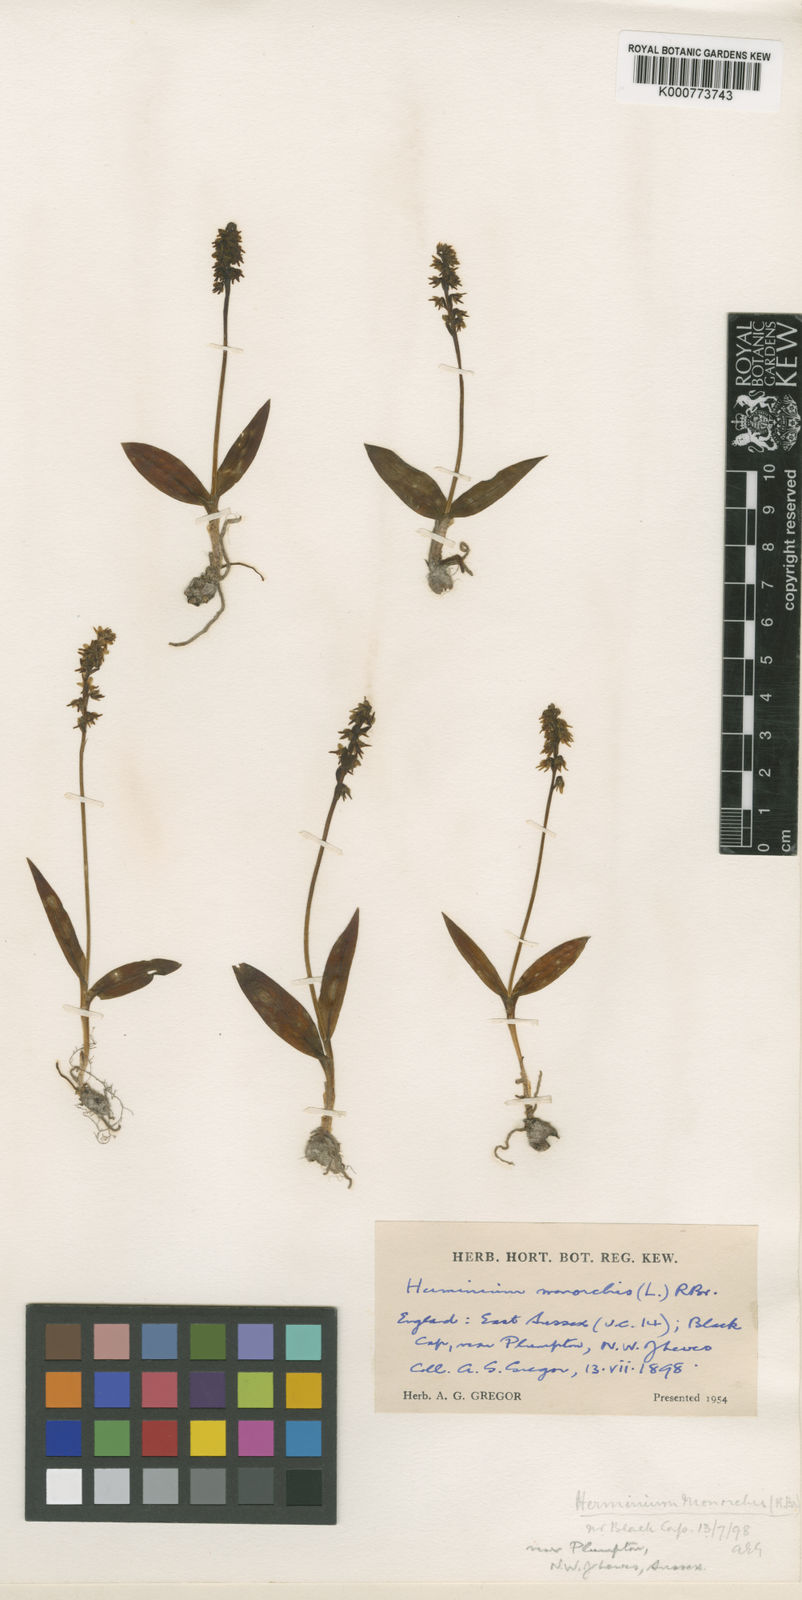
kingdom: Plantae
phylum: Tracheophyta
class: Liliopsida
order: Asparagales
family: Orchidaceae
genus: Herminium
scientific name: Herminium monorchis
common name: Musk orchid
